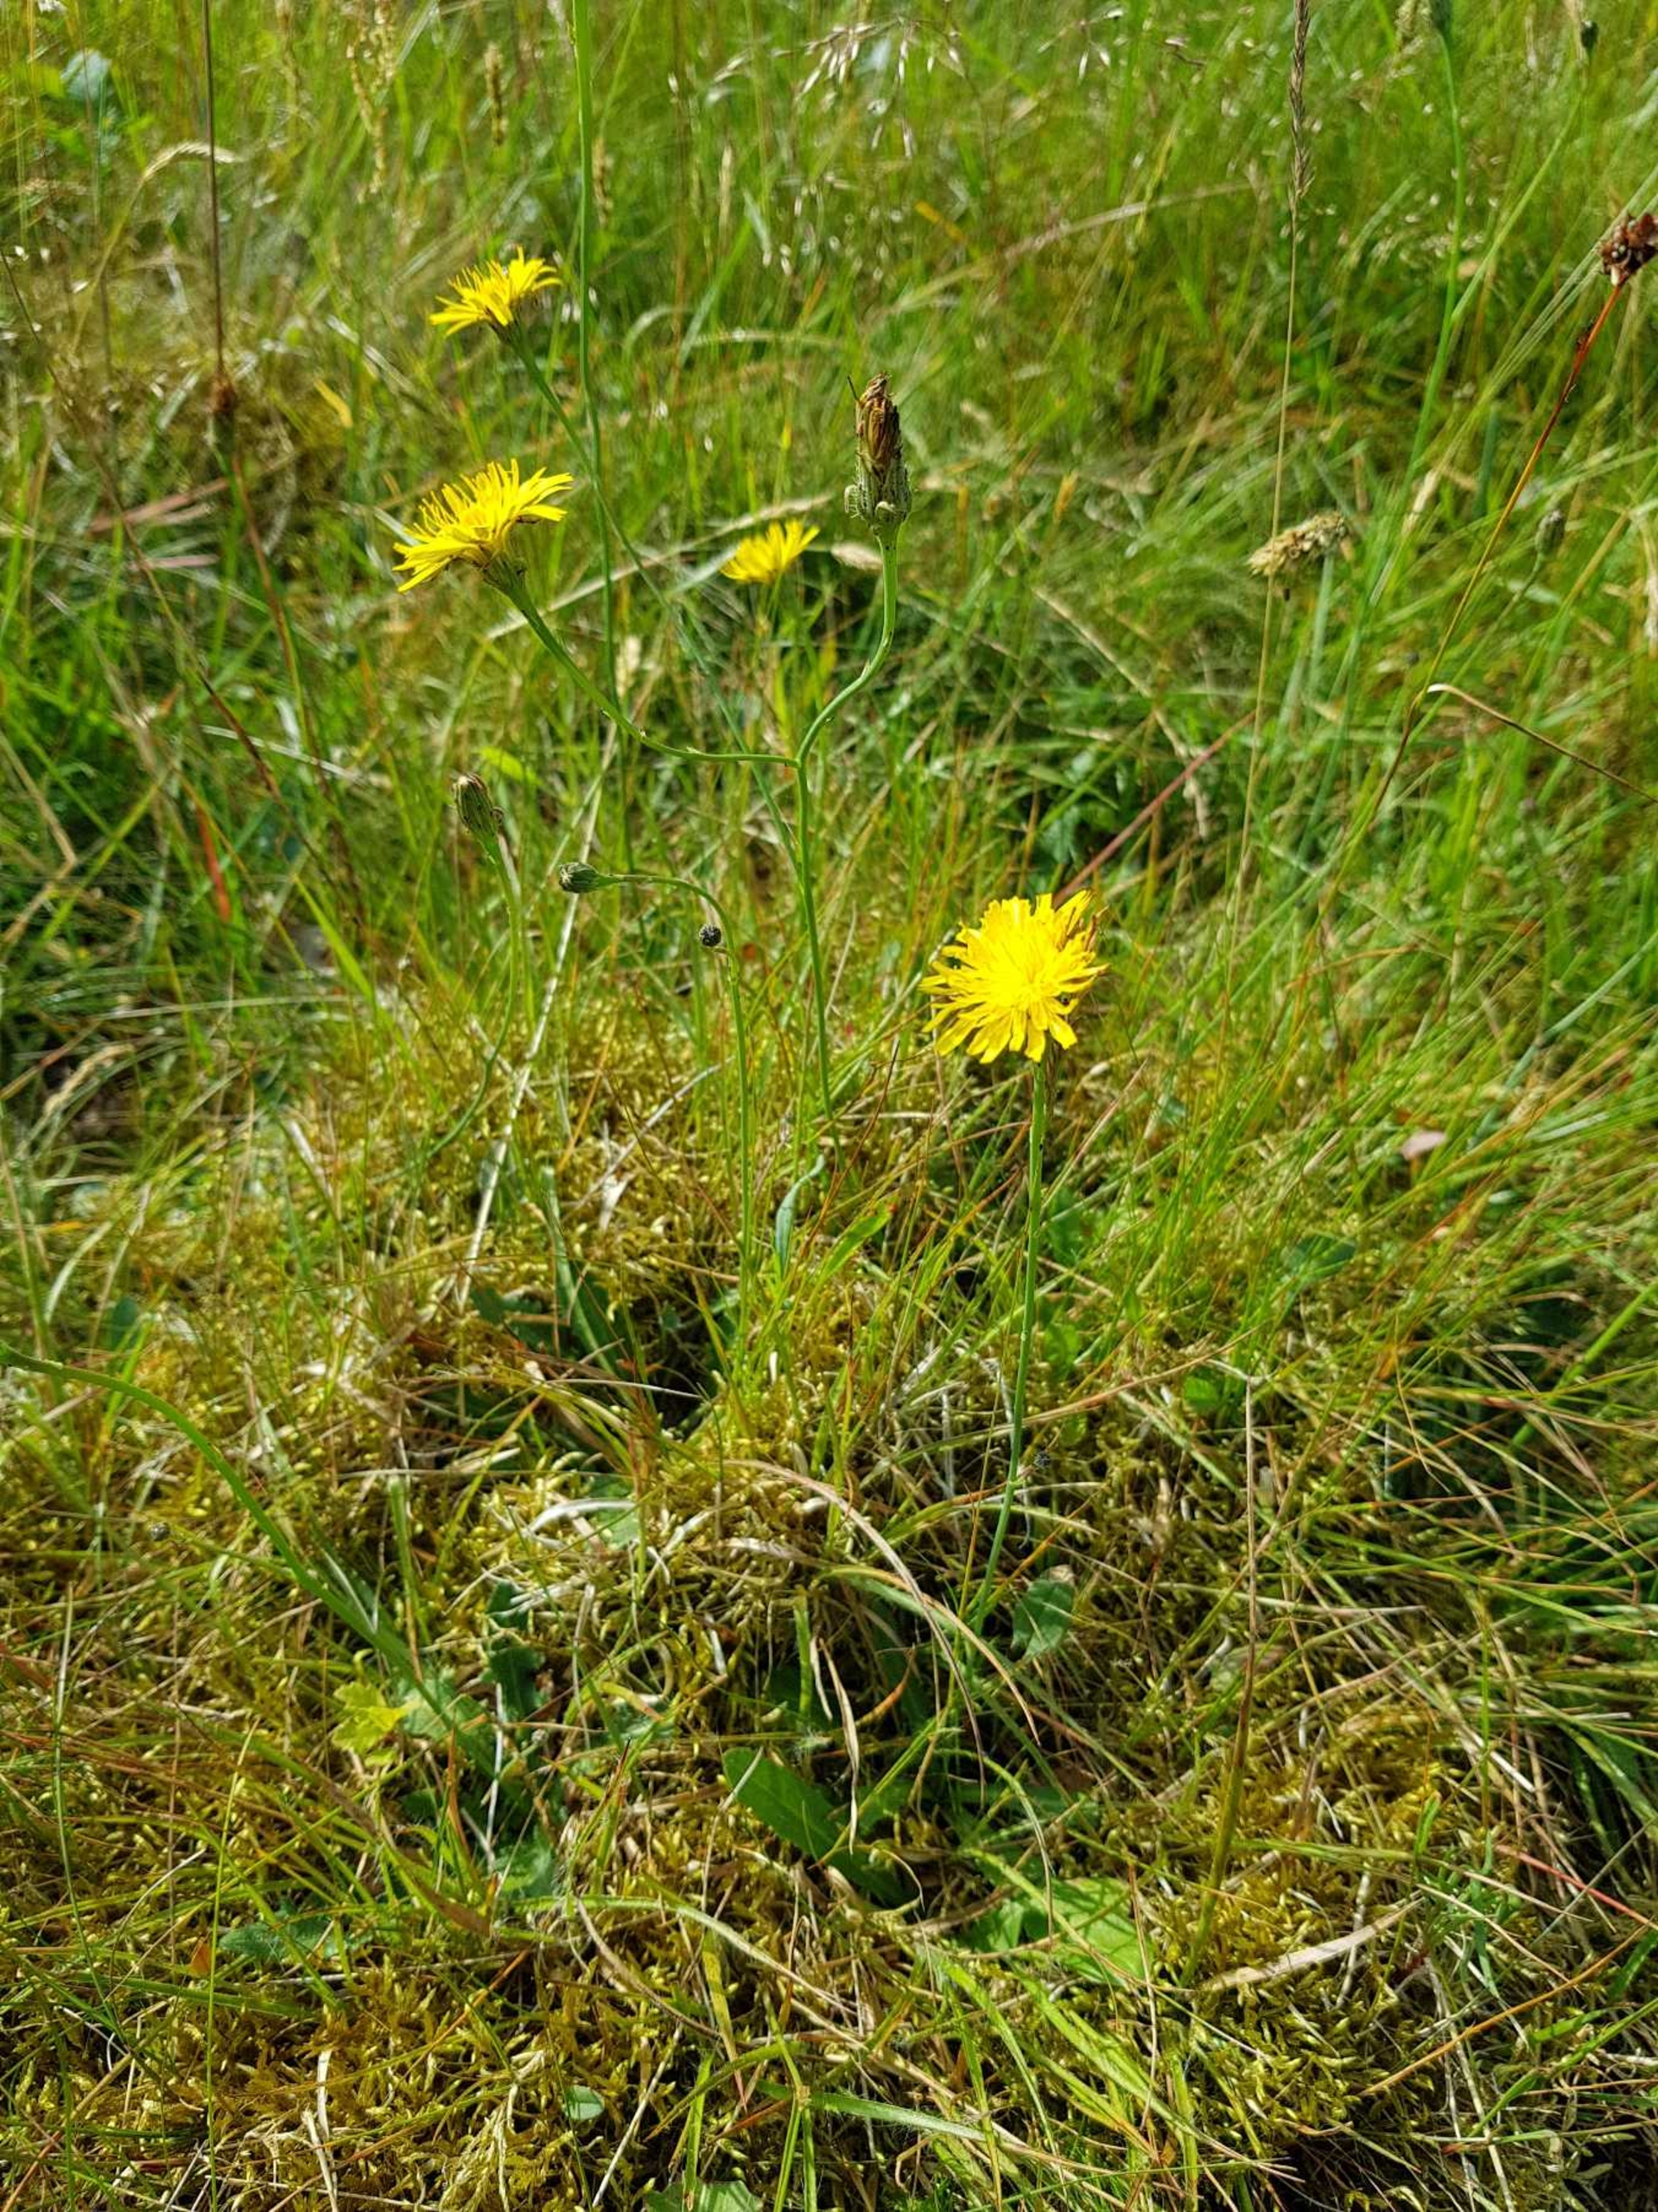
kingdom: Plantae
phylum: Tracheophyta
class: Magnoliopsida
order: Asterales
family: Asteraceae
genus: Hypochaeris
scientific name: Hypochaeris radicata
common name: Almindelig kongepen
